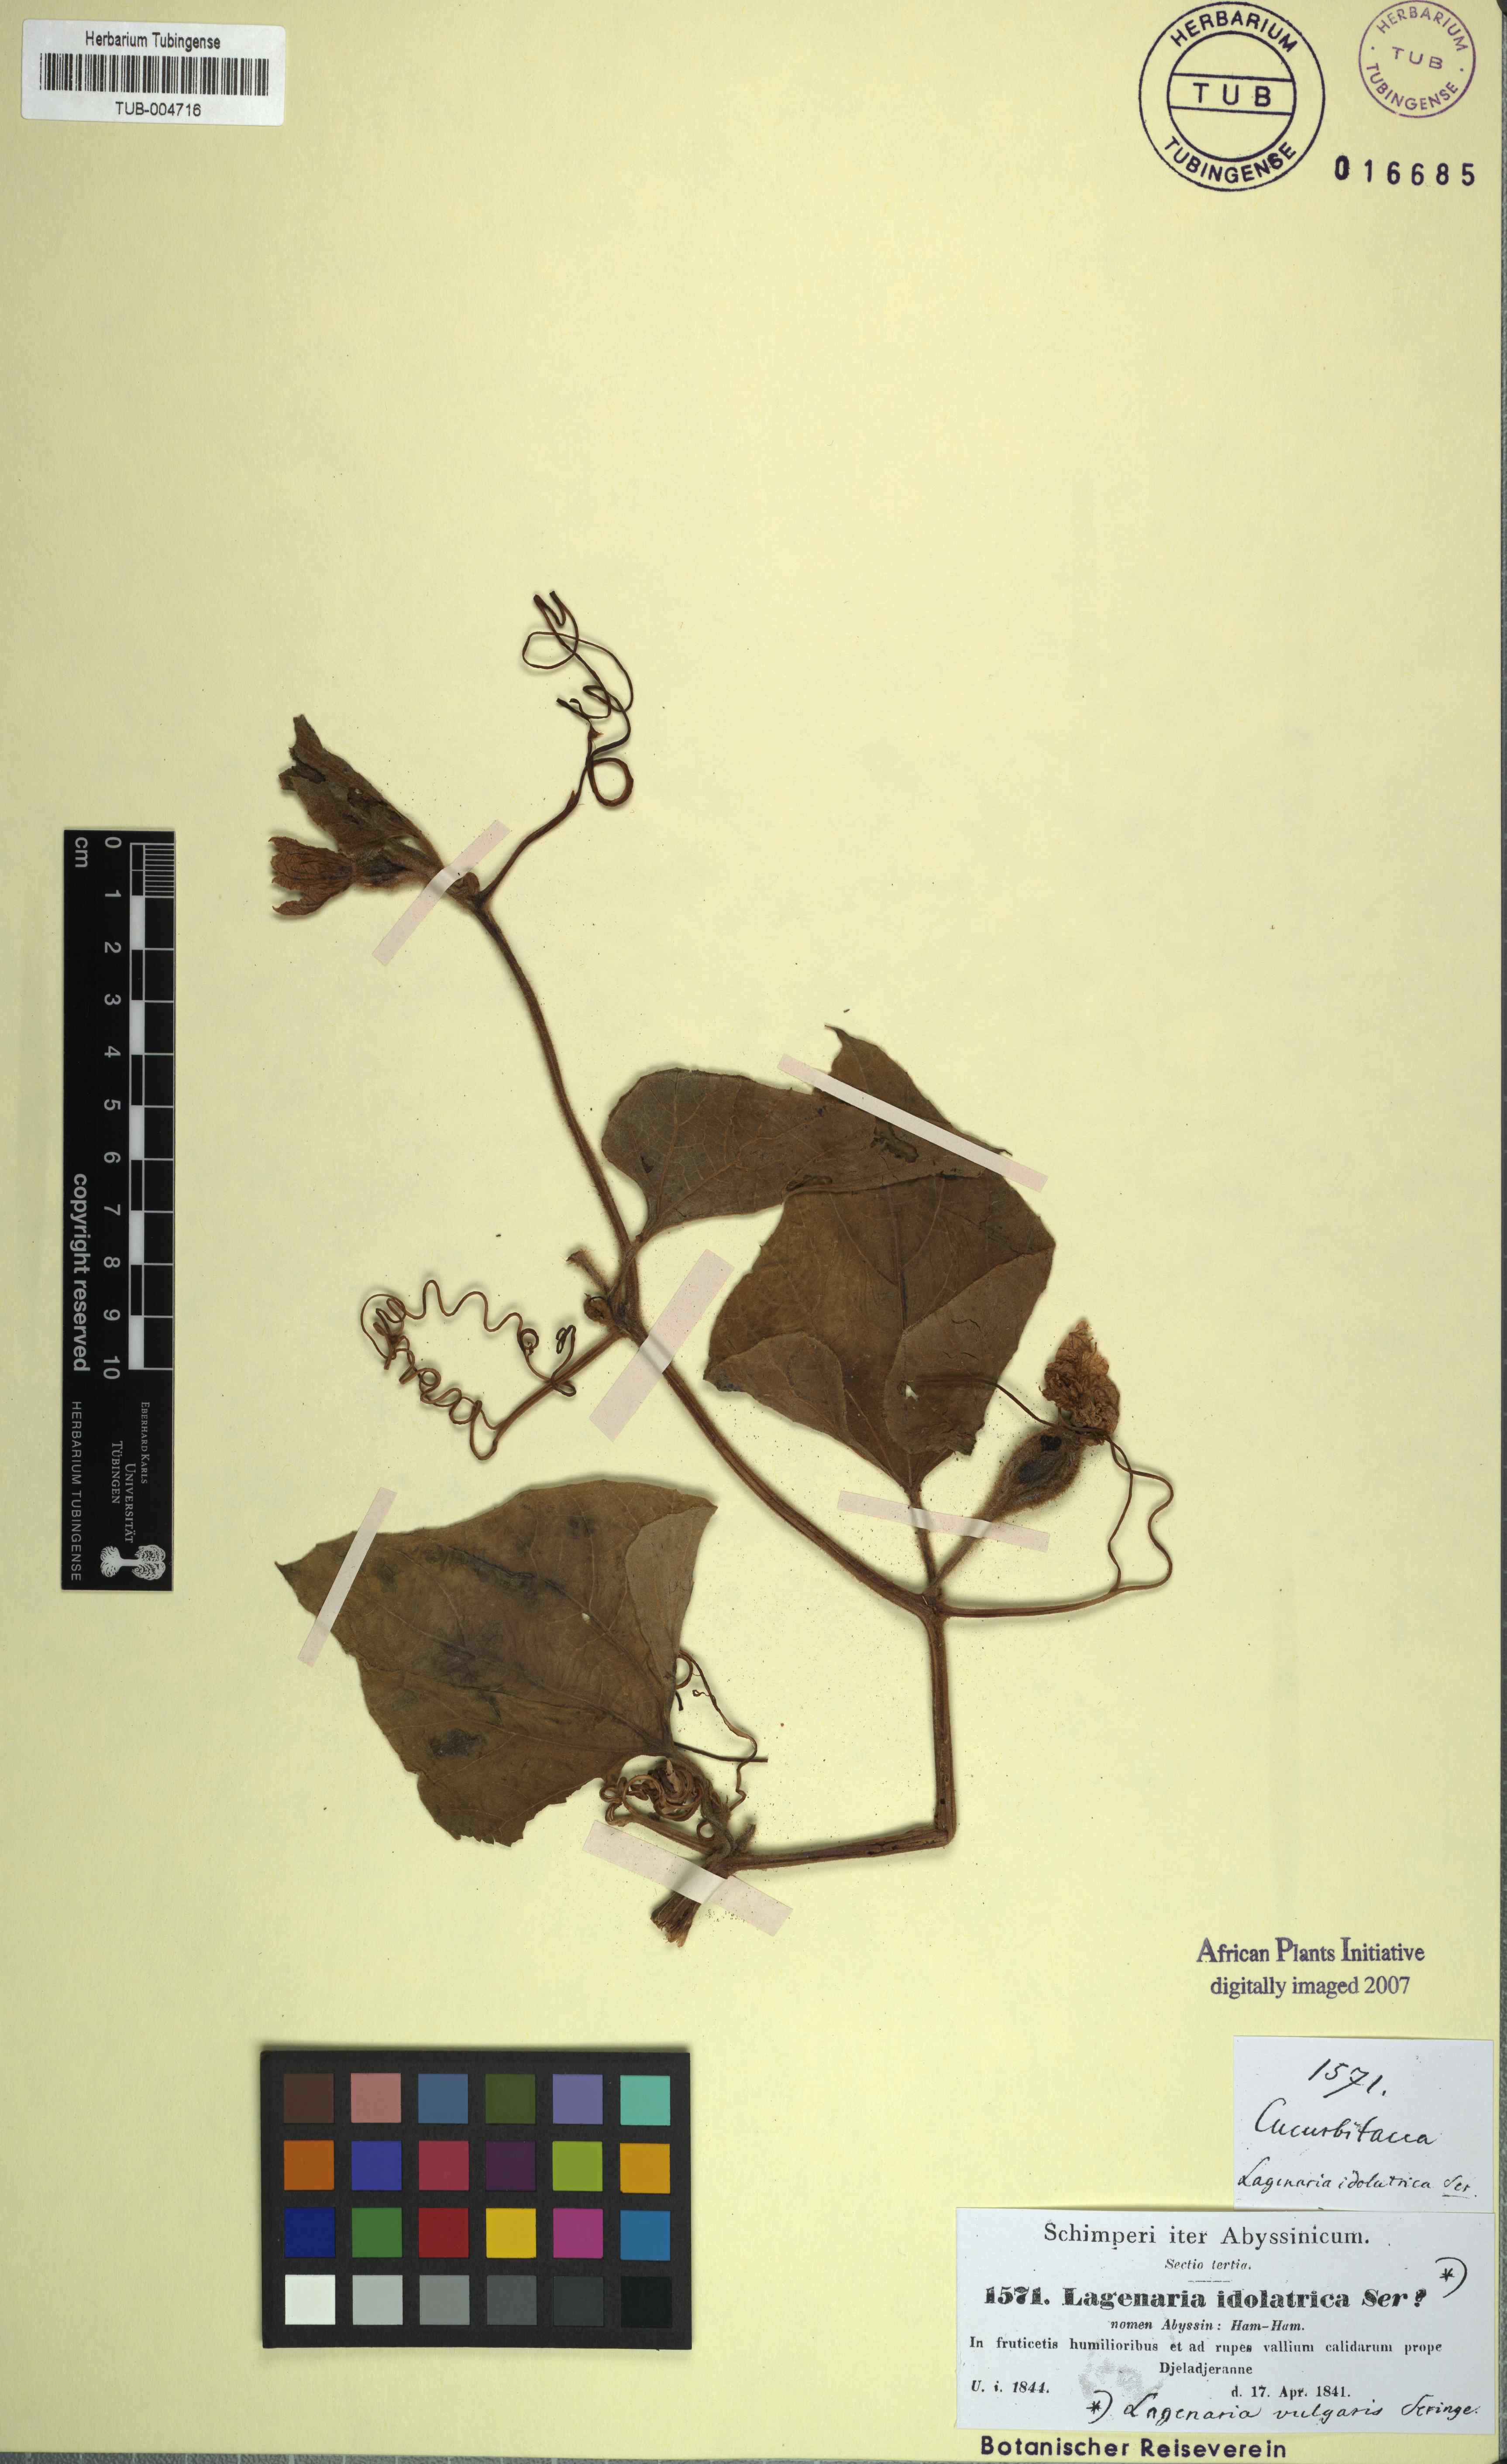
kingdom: Plantae
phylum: Tracheophyta
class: Magnoliopsida
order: Cucurbitales
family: Cucurbitaceae
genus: Lagenaria
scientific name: Lagenaria siceraria
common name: Bottle gourd
